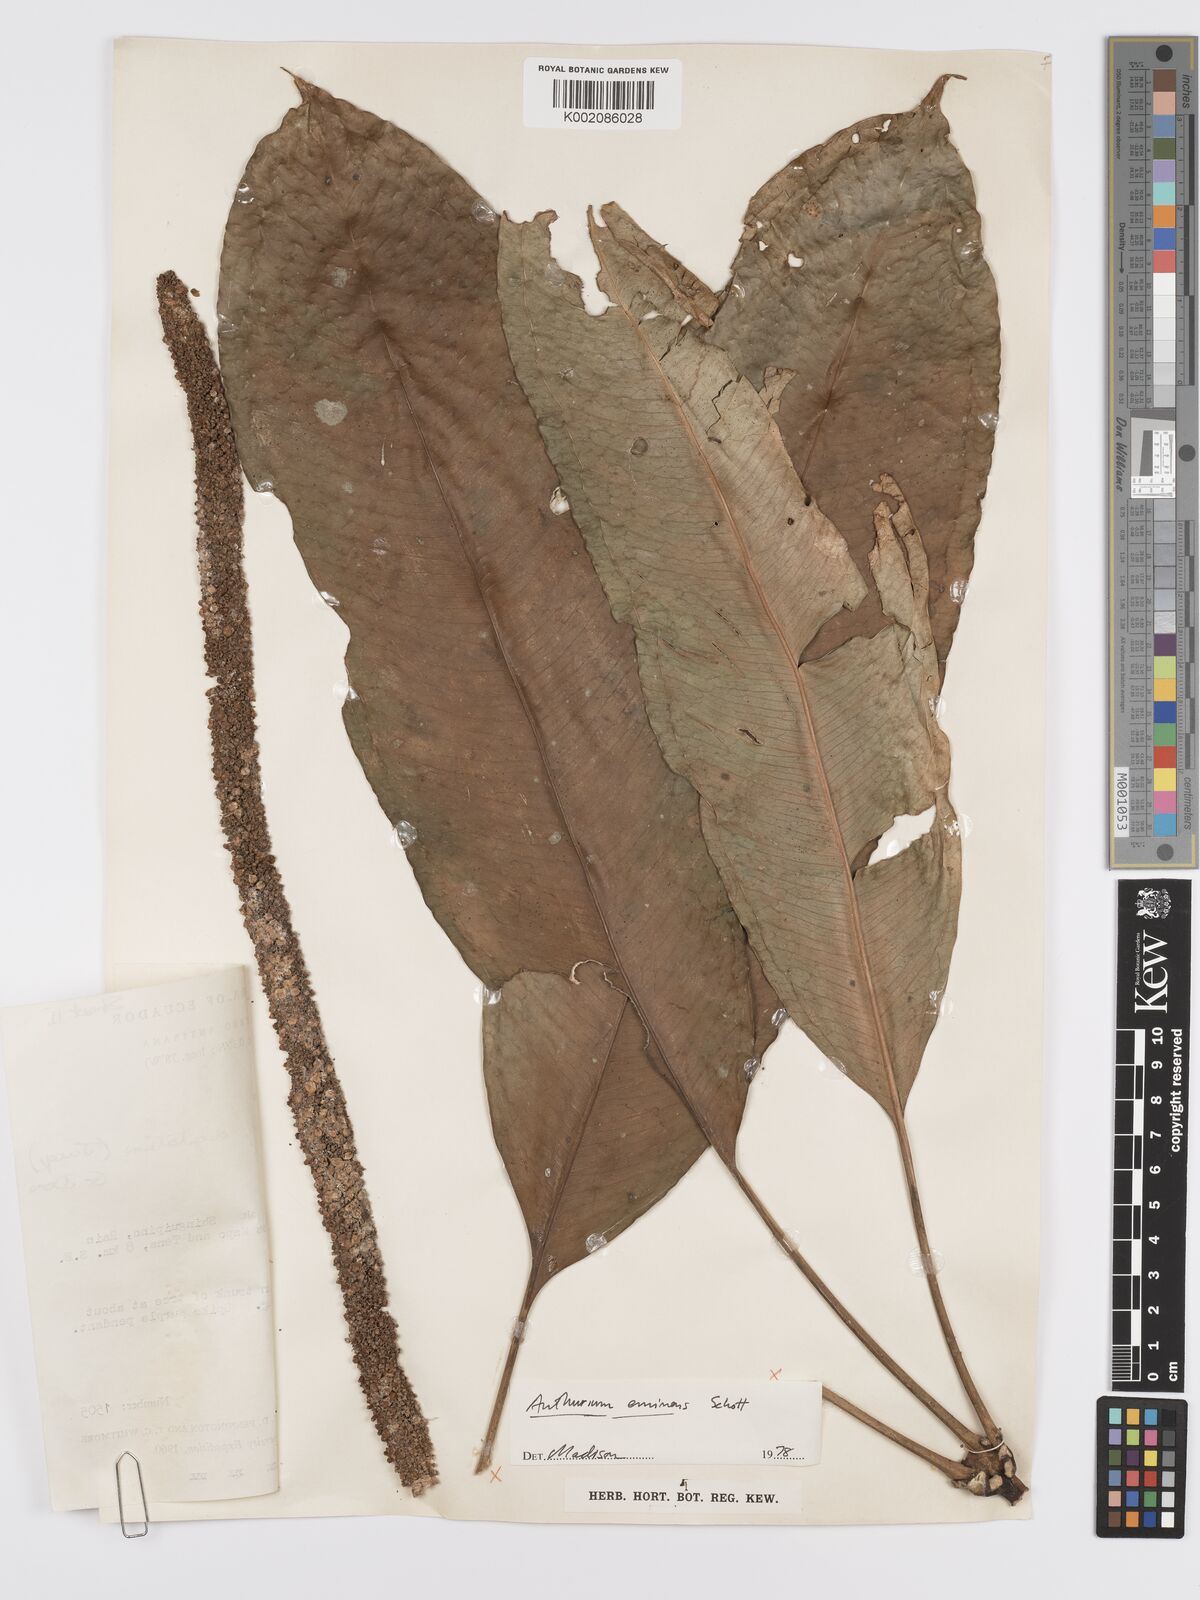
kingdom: Plantae
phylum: Tracheophyta
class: Liliopsida
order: Alismatales
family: Araceae
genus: Anthurium
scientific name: Anthurium eminens
